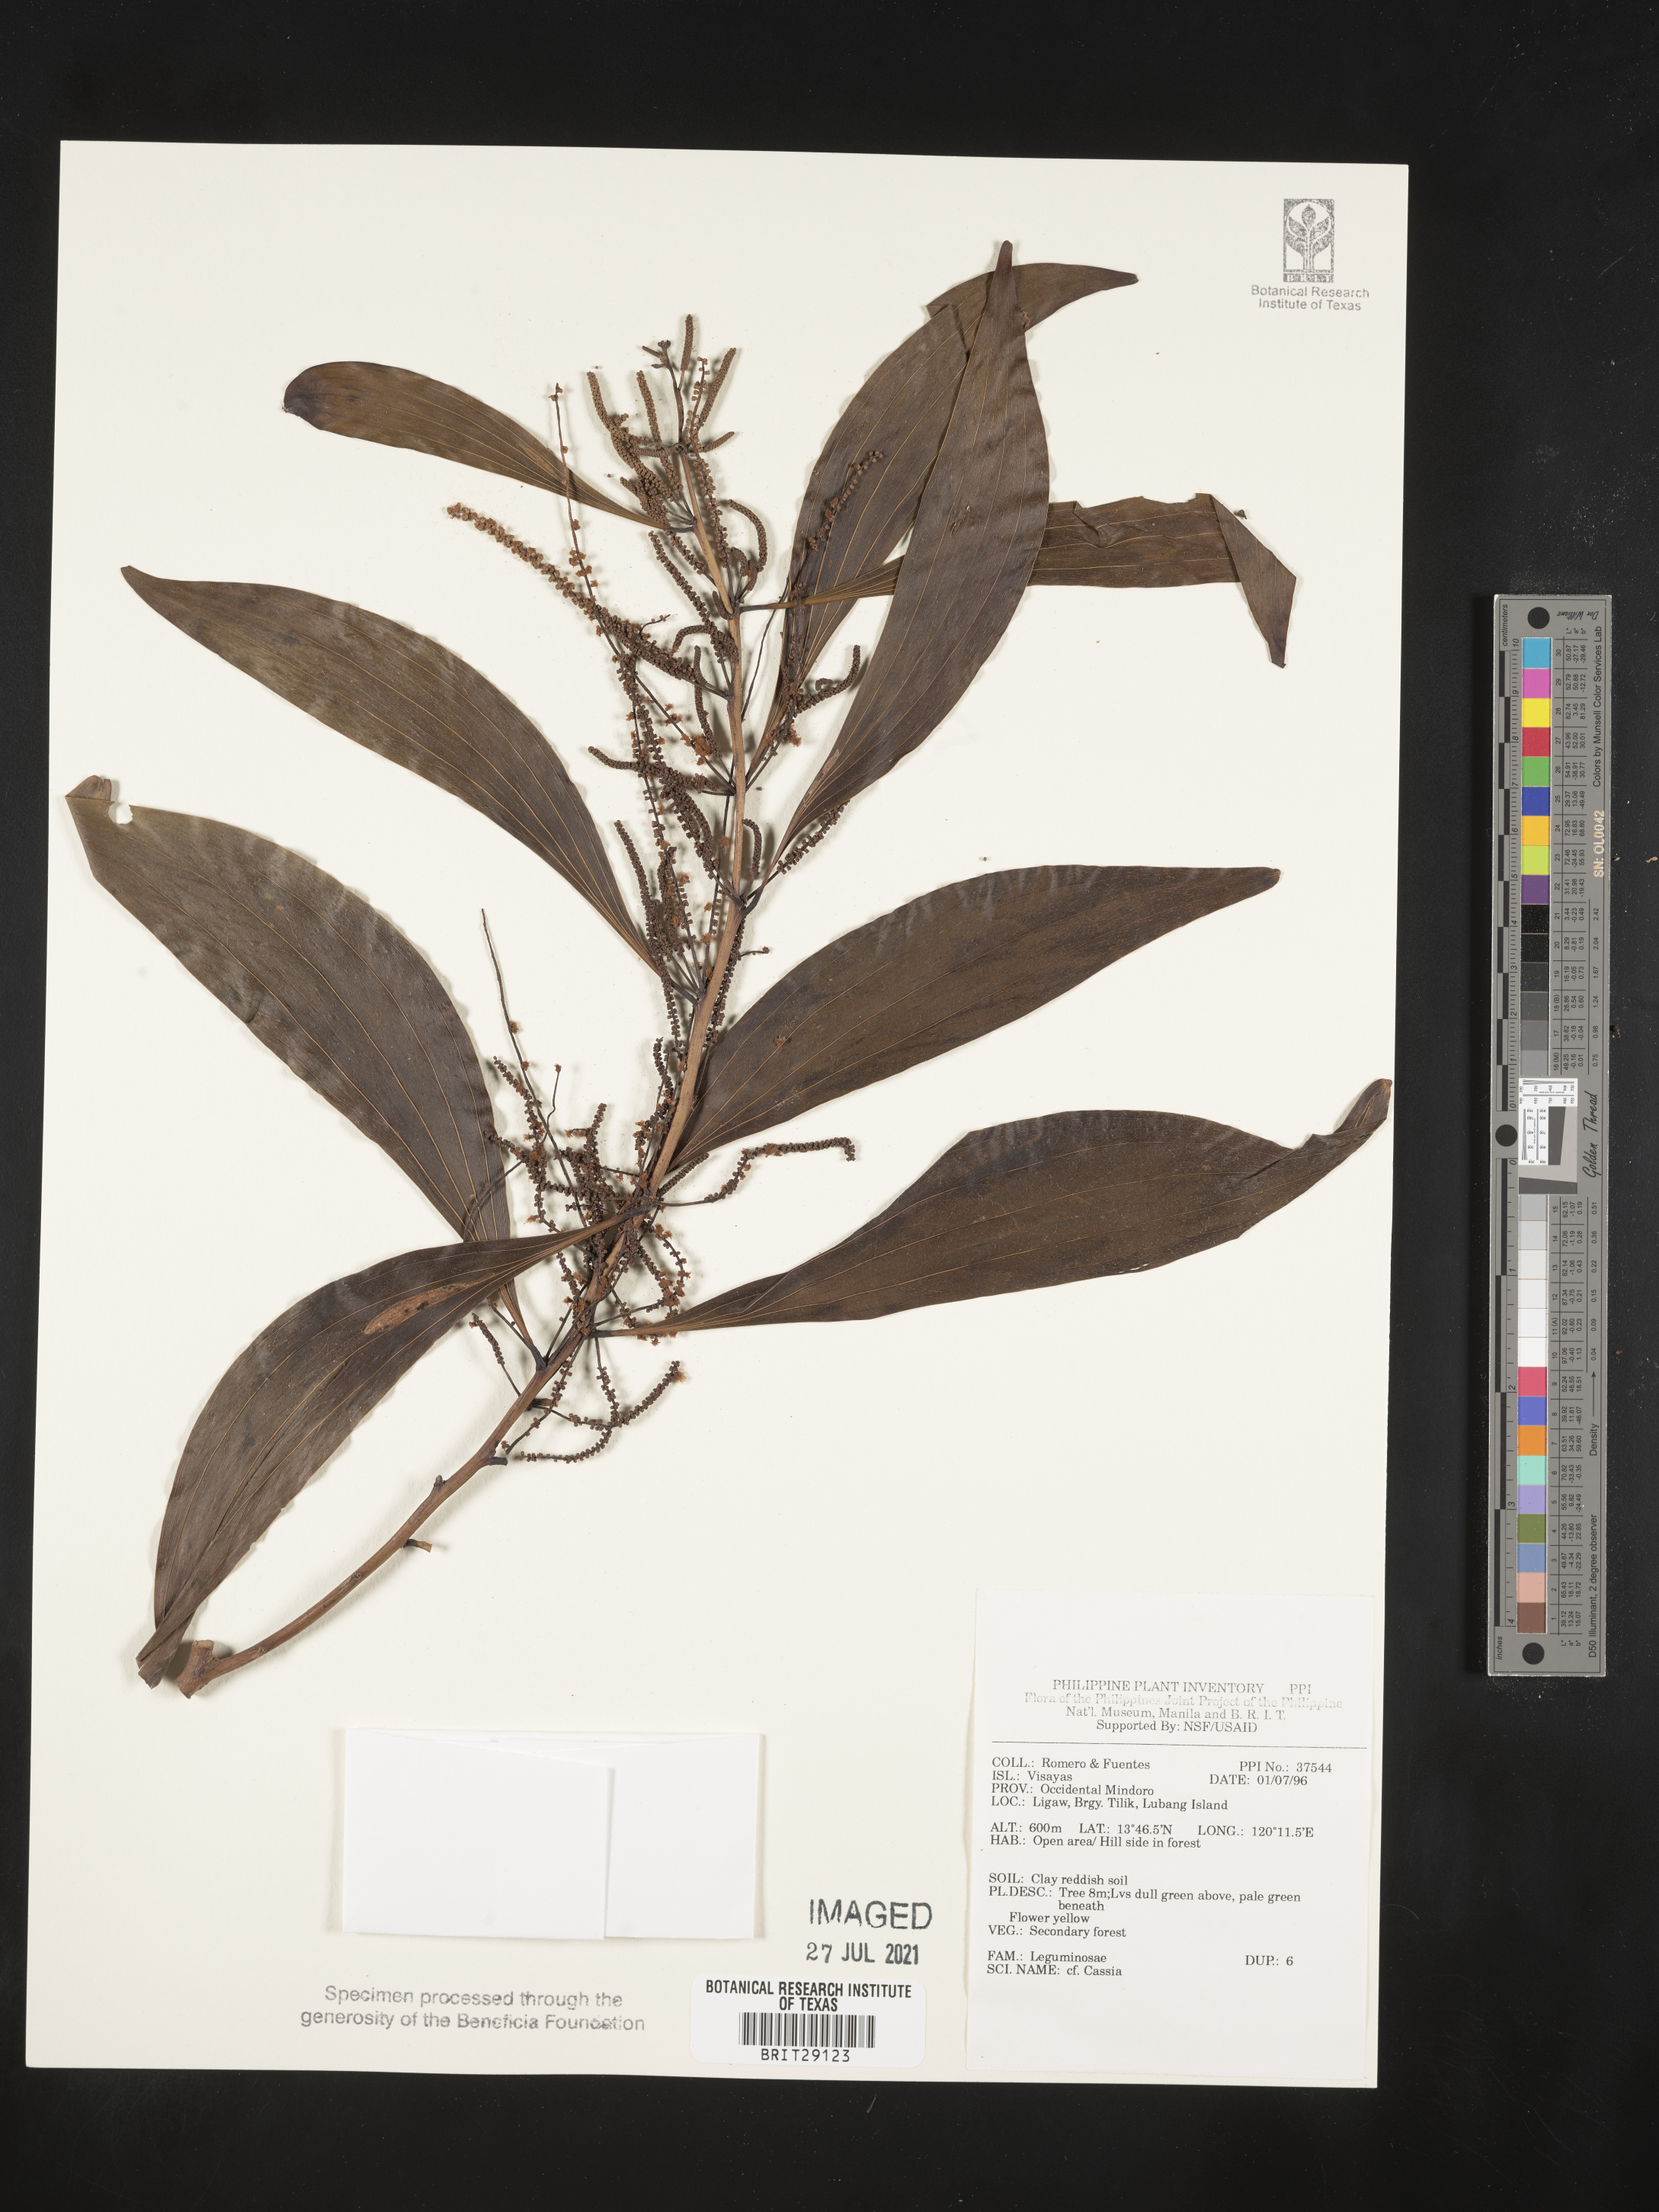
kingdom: Plantae
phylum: Tracheophyta
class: Magnoliopsida
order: Fabales
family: Fabaceae
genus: Cassia
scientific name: Cassia
